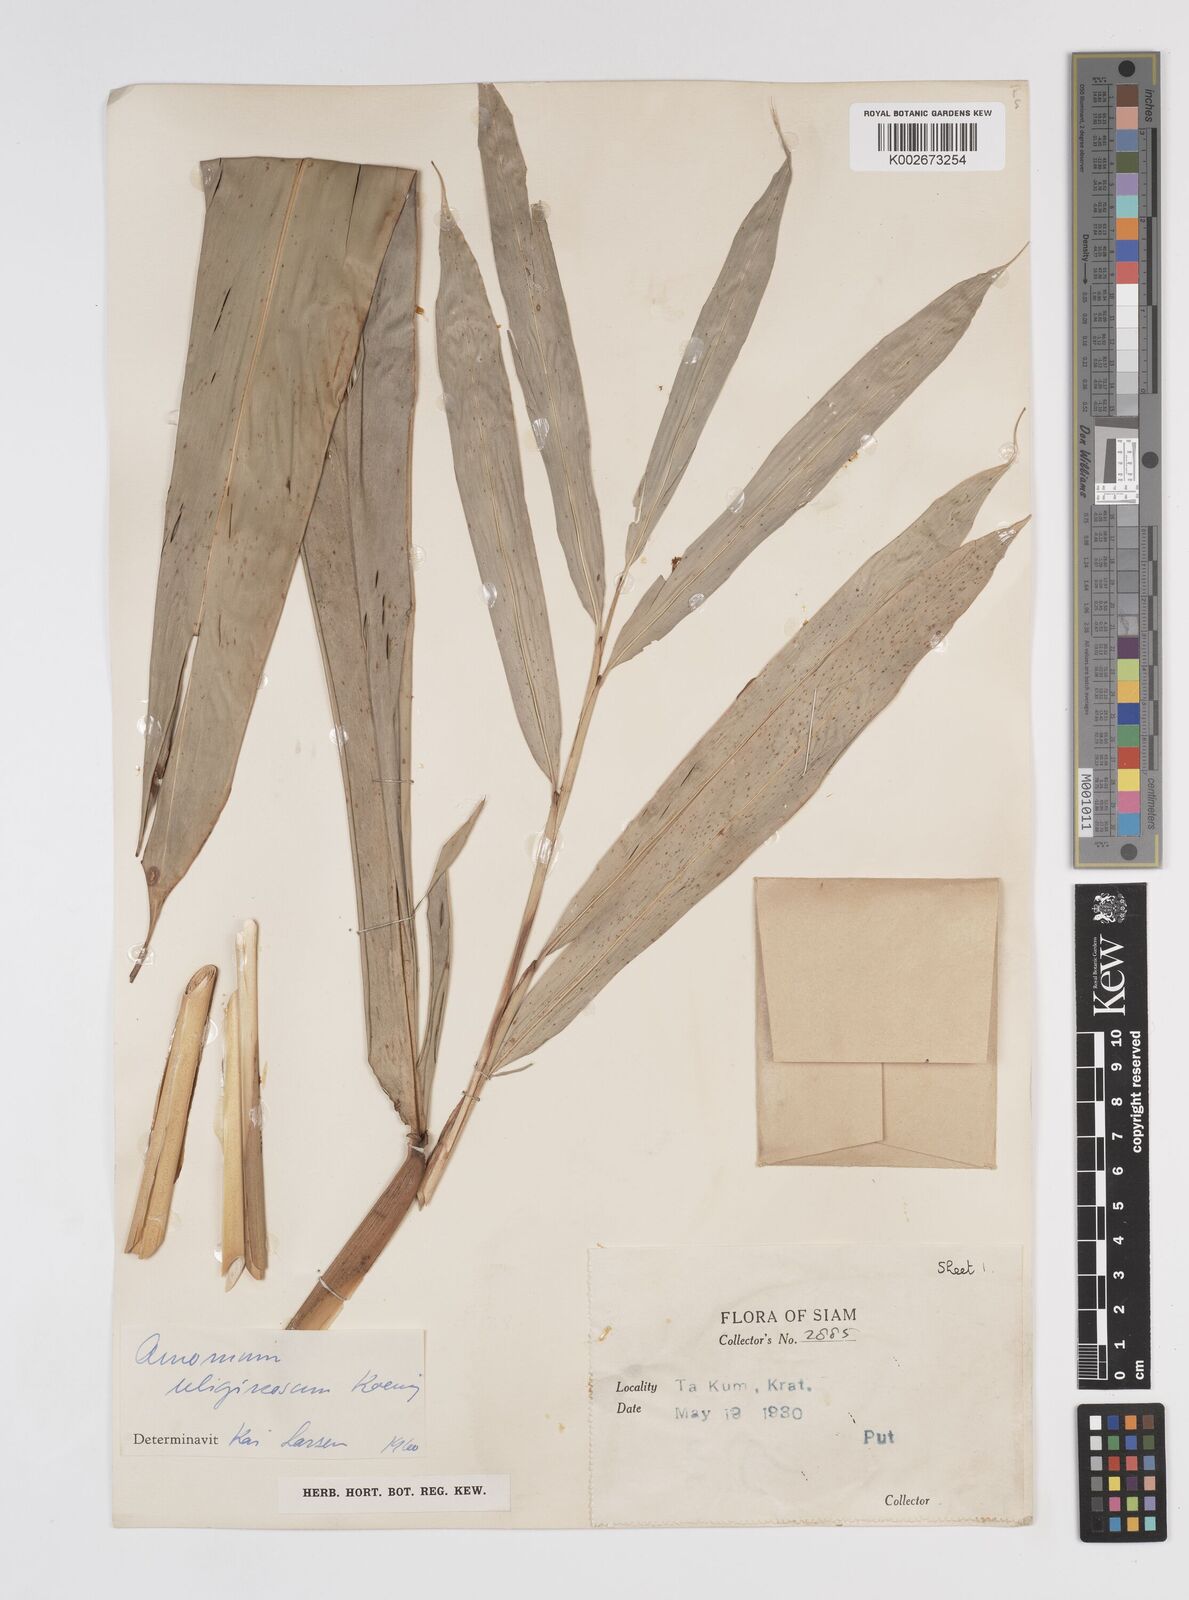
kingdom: Plantae
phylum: Tracheophyta
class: Liliopsida
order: Zingiberales
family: Zingiberaceae
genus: Wurfbainia
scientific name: Wurfbainia uliginosa
